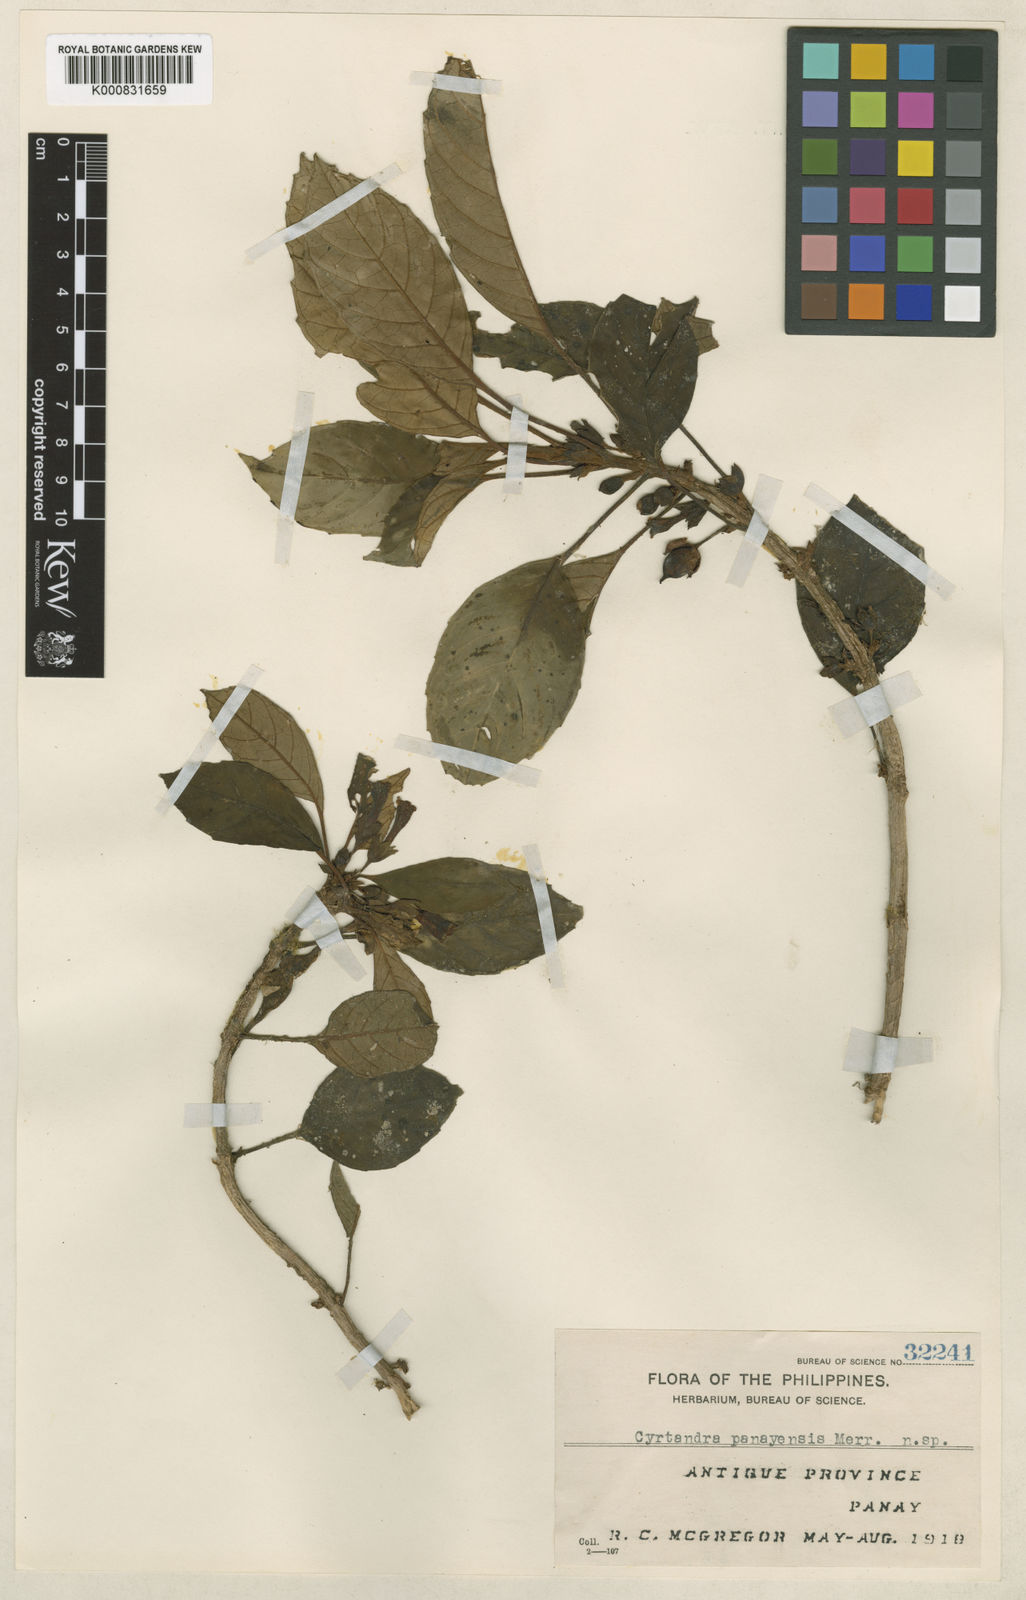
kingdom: Plantae
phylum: Tracheophyta
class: Magnoliopsida
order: Lamiales
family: Gesneriaceae
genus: Cyrtandra
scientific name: Cyrtandra panayensis
